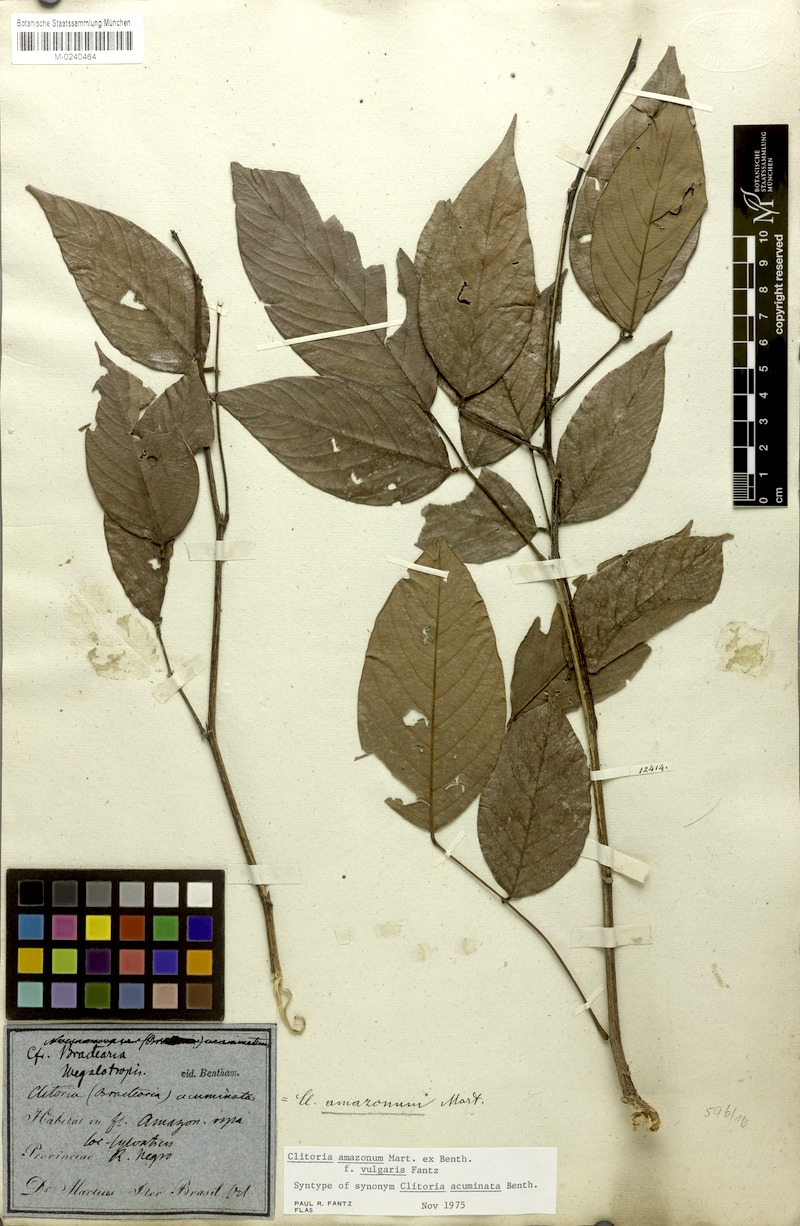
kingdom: Plantae
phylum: Tracheophyta
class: Magnoliopsida
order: Fabales
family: Fabaceae
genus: Clitoria
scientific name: Clitoria amazonum
